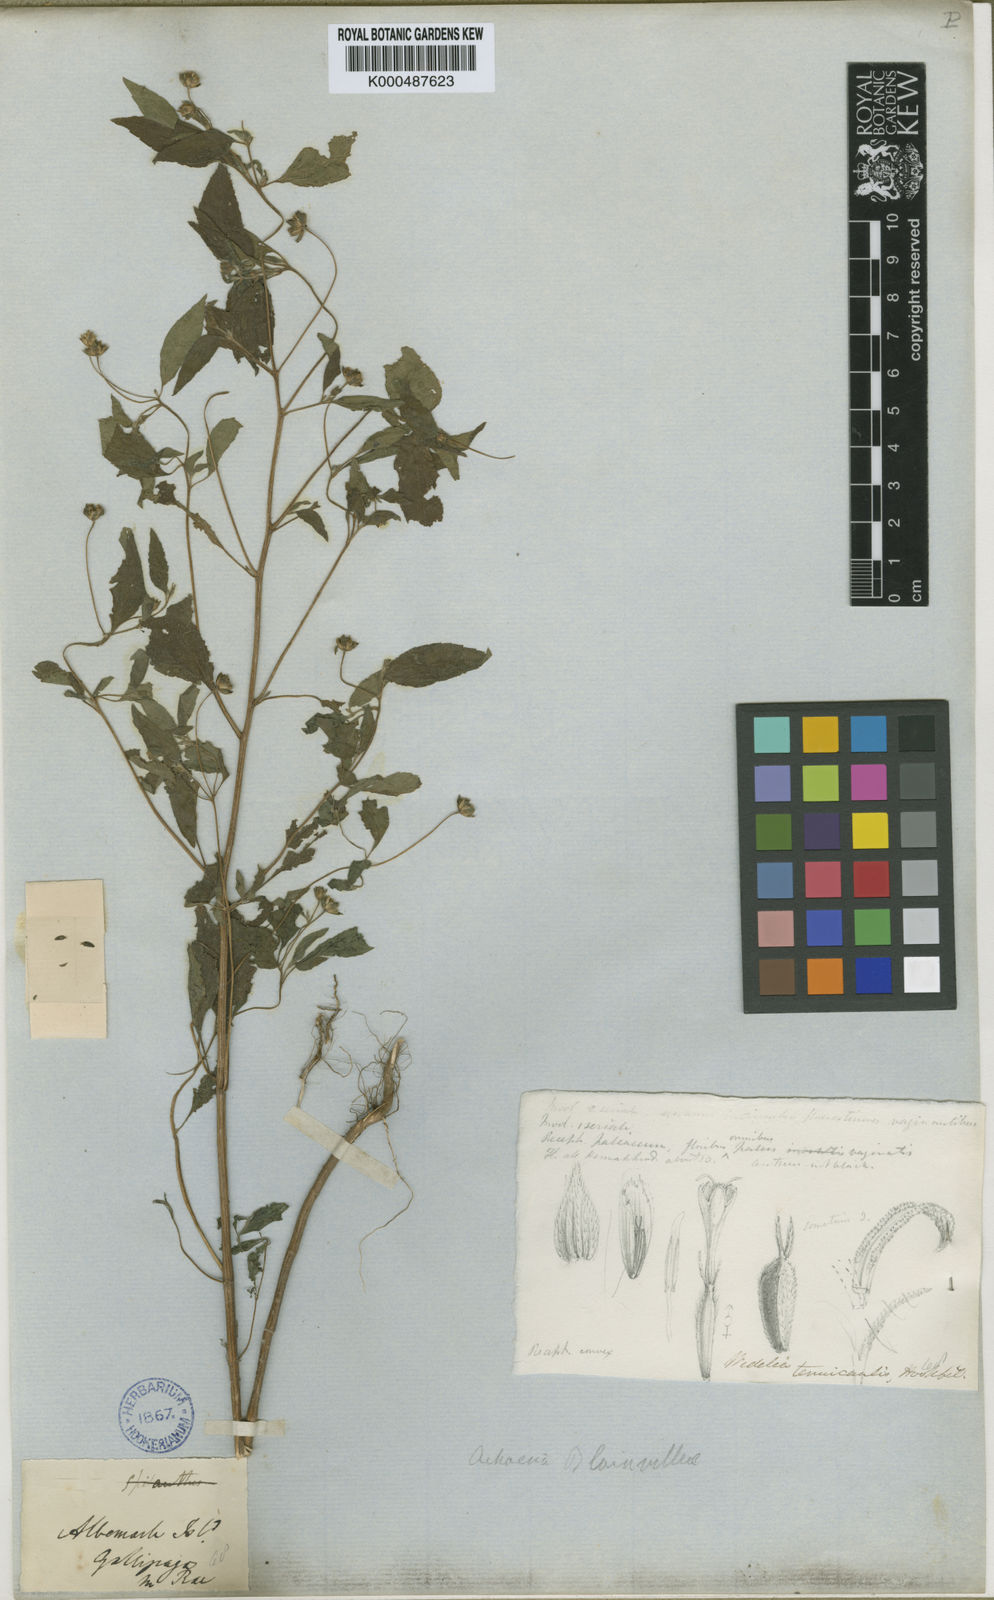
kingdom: Plantae
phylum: Tracheophyta
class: Magnoliopsida
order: Asterales
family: Asteraceae
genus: Blainvillea
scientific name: Blainvillea dichotoma
